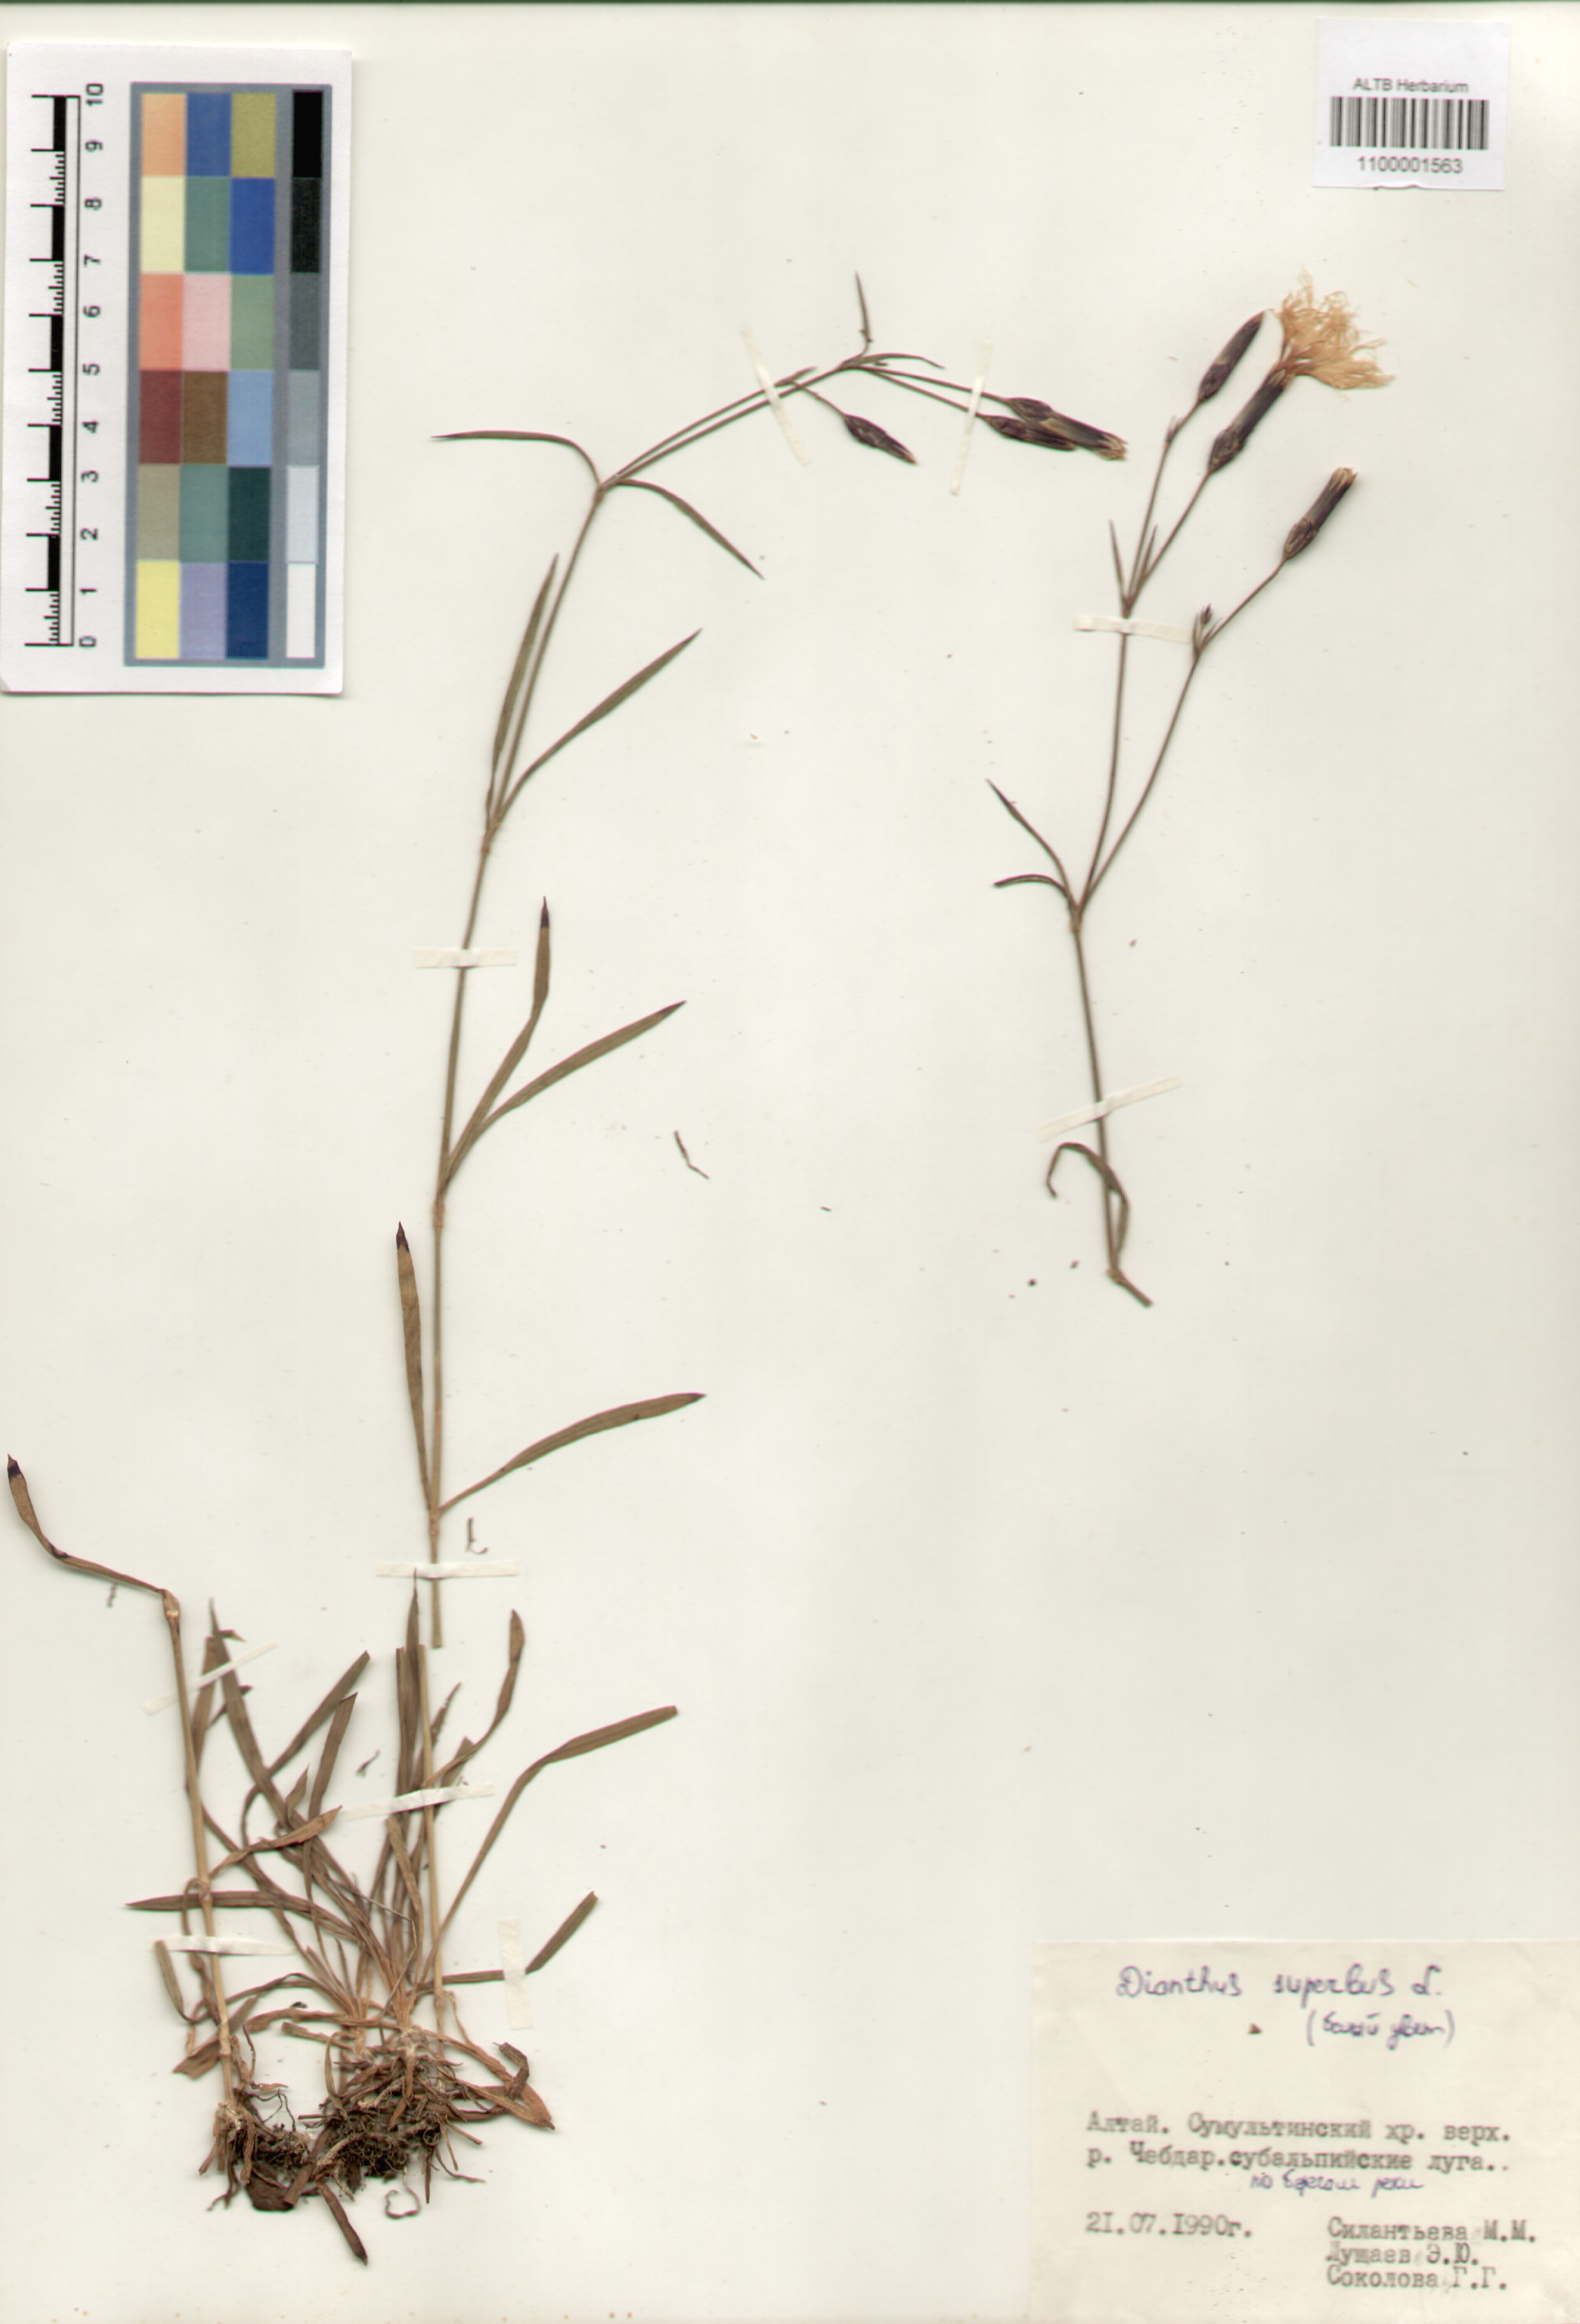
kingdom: Plantae
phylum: Tracheophyta
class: Magnoliopsida
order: Caryophyllales
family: Caryophyllaceae
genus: Dianthus
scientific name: Dianthus superbus
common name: Fringed pink
